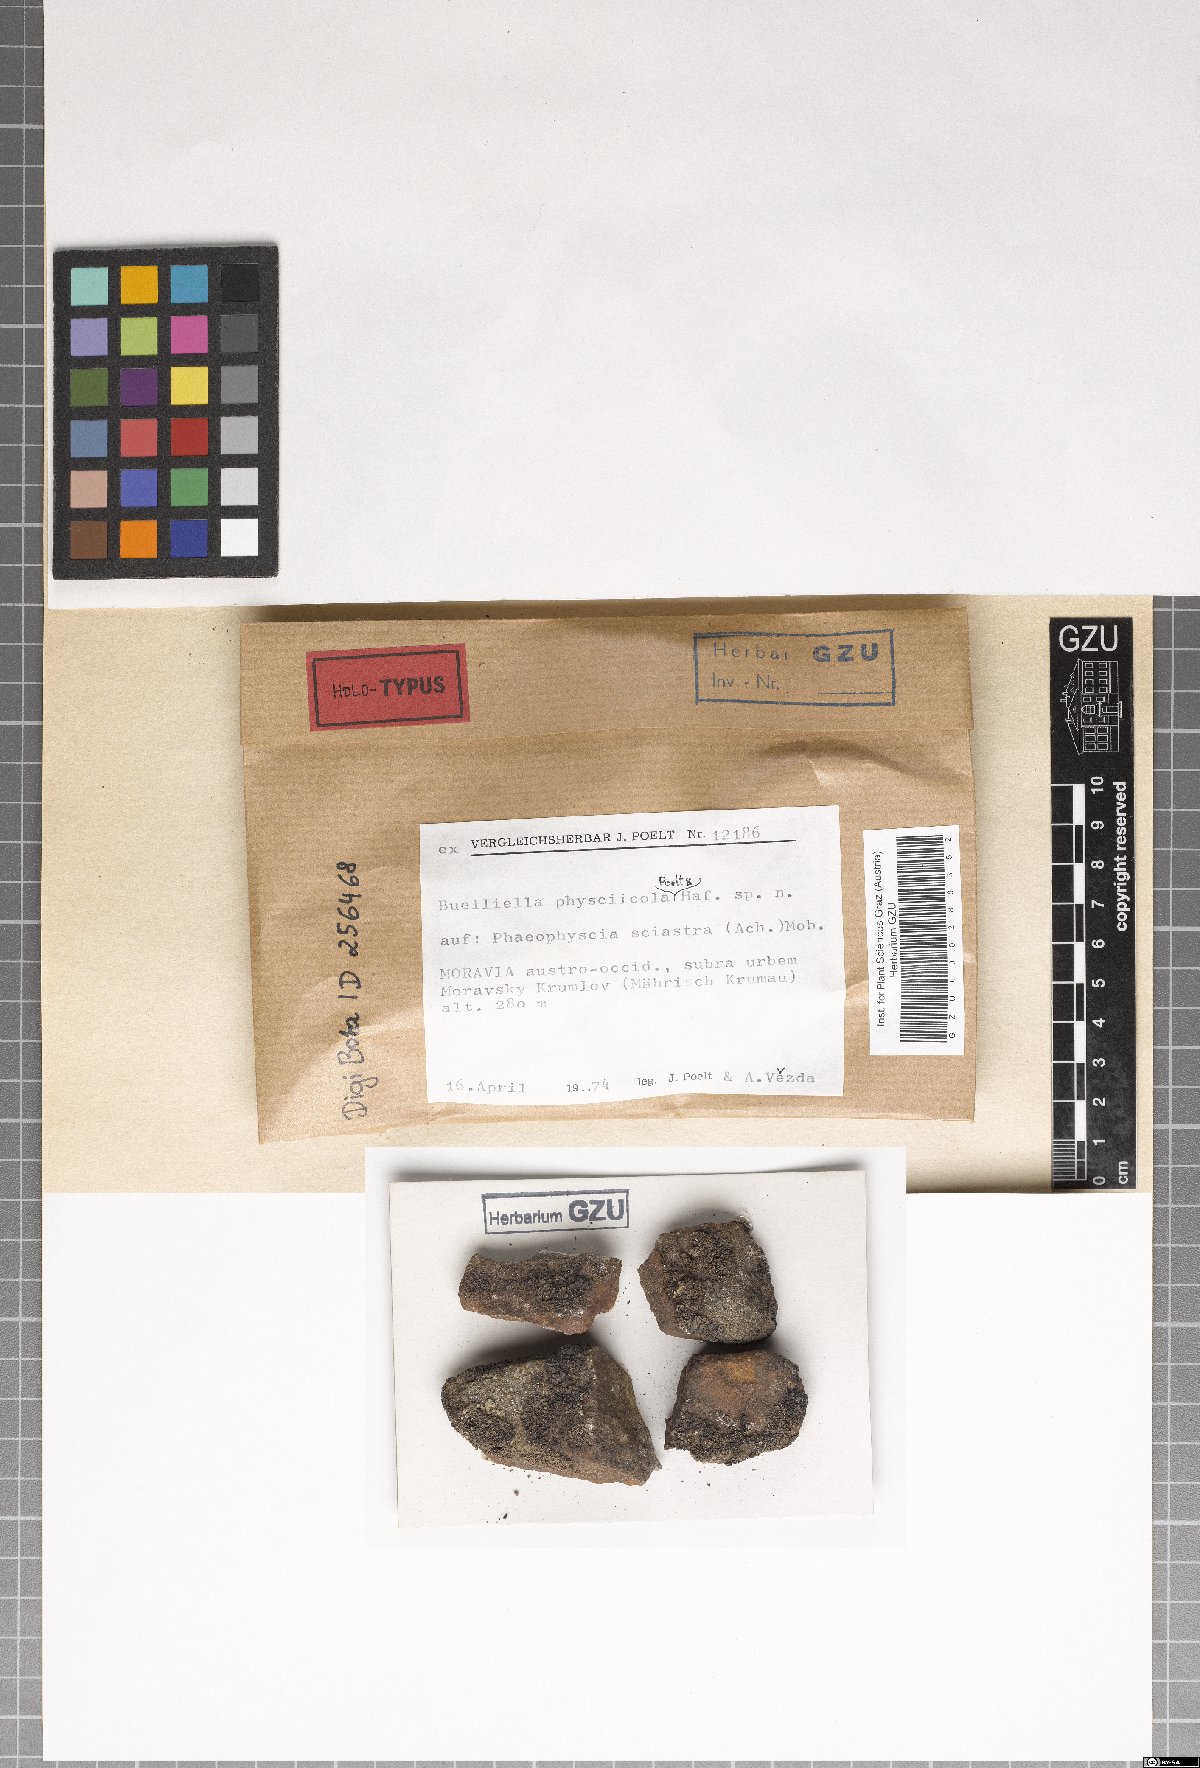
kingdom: Fungi
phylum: Ascomycota
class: Dothideomycetes
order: Dothideales
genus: Buelliella
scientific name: Buelliella physciicola
